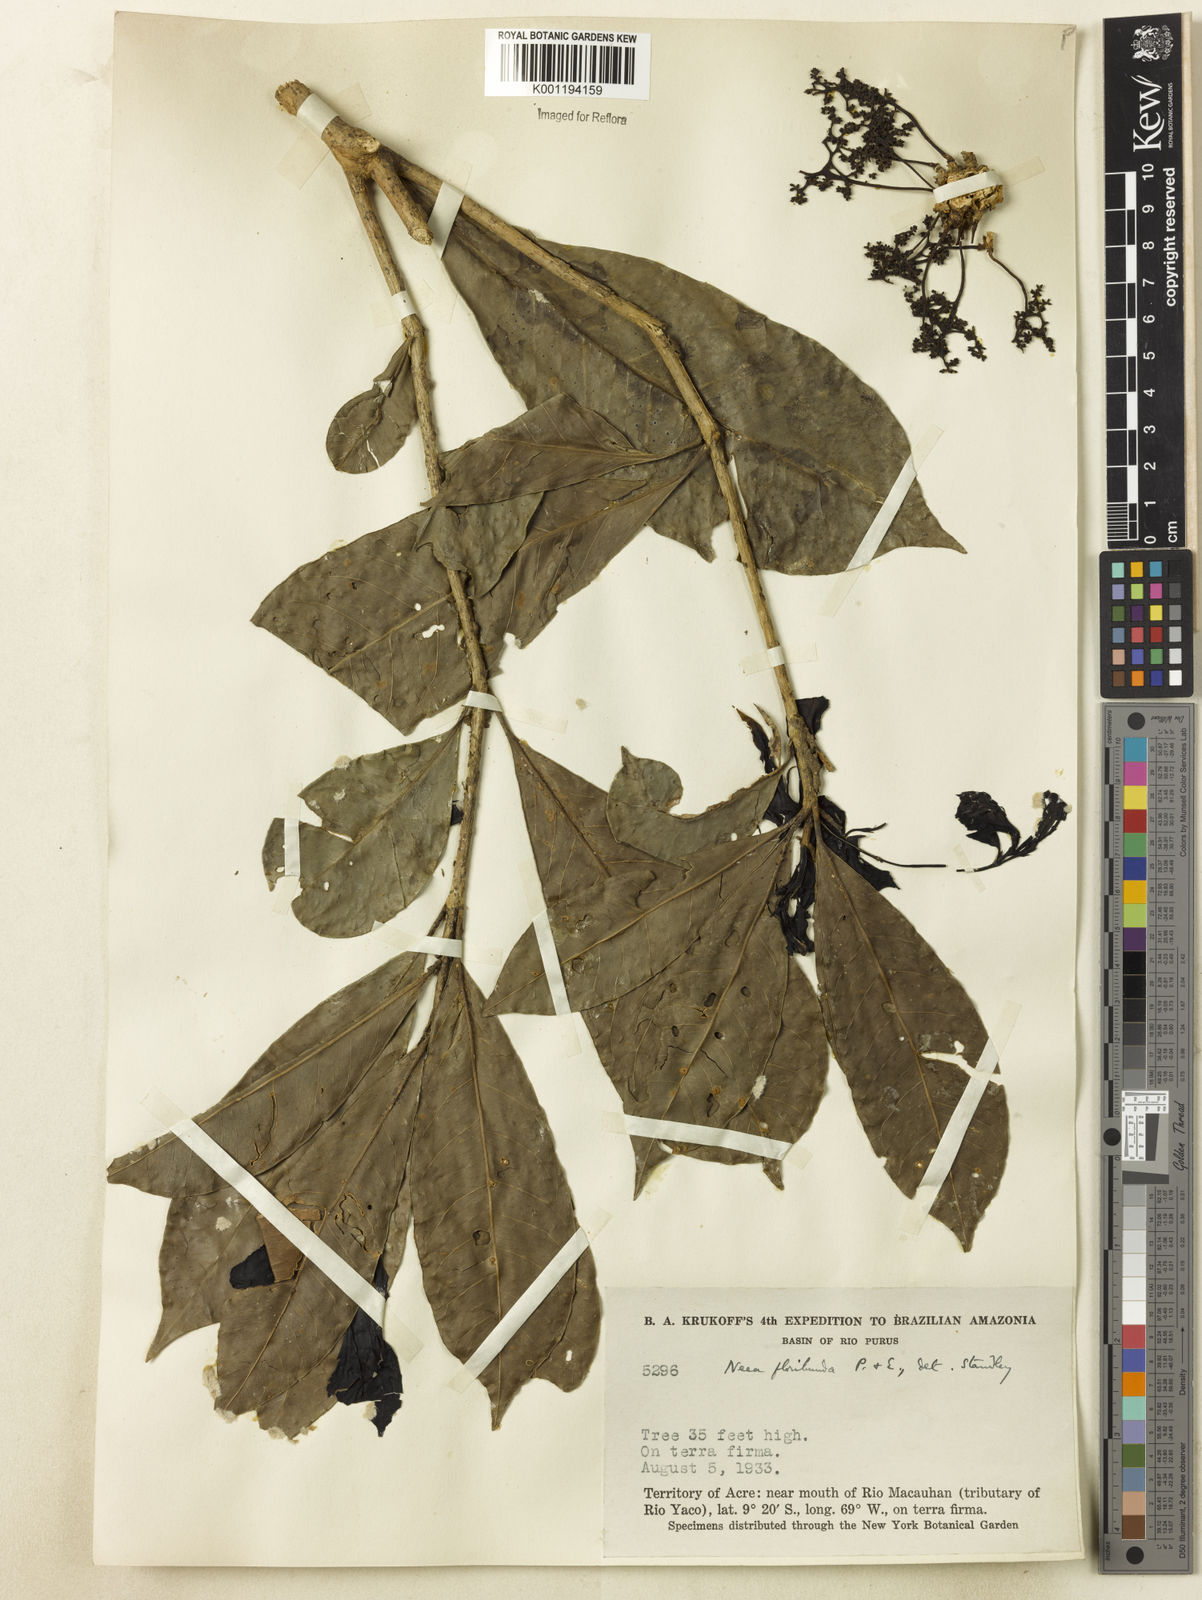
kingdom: Plantae
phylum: Tracheophyta
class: Magnoliopsida
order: Caryophyllales
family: Nyctaginaceae
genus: Neea
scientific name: Neea floribunda
